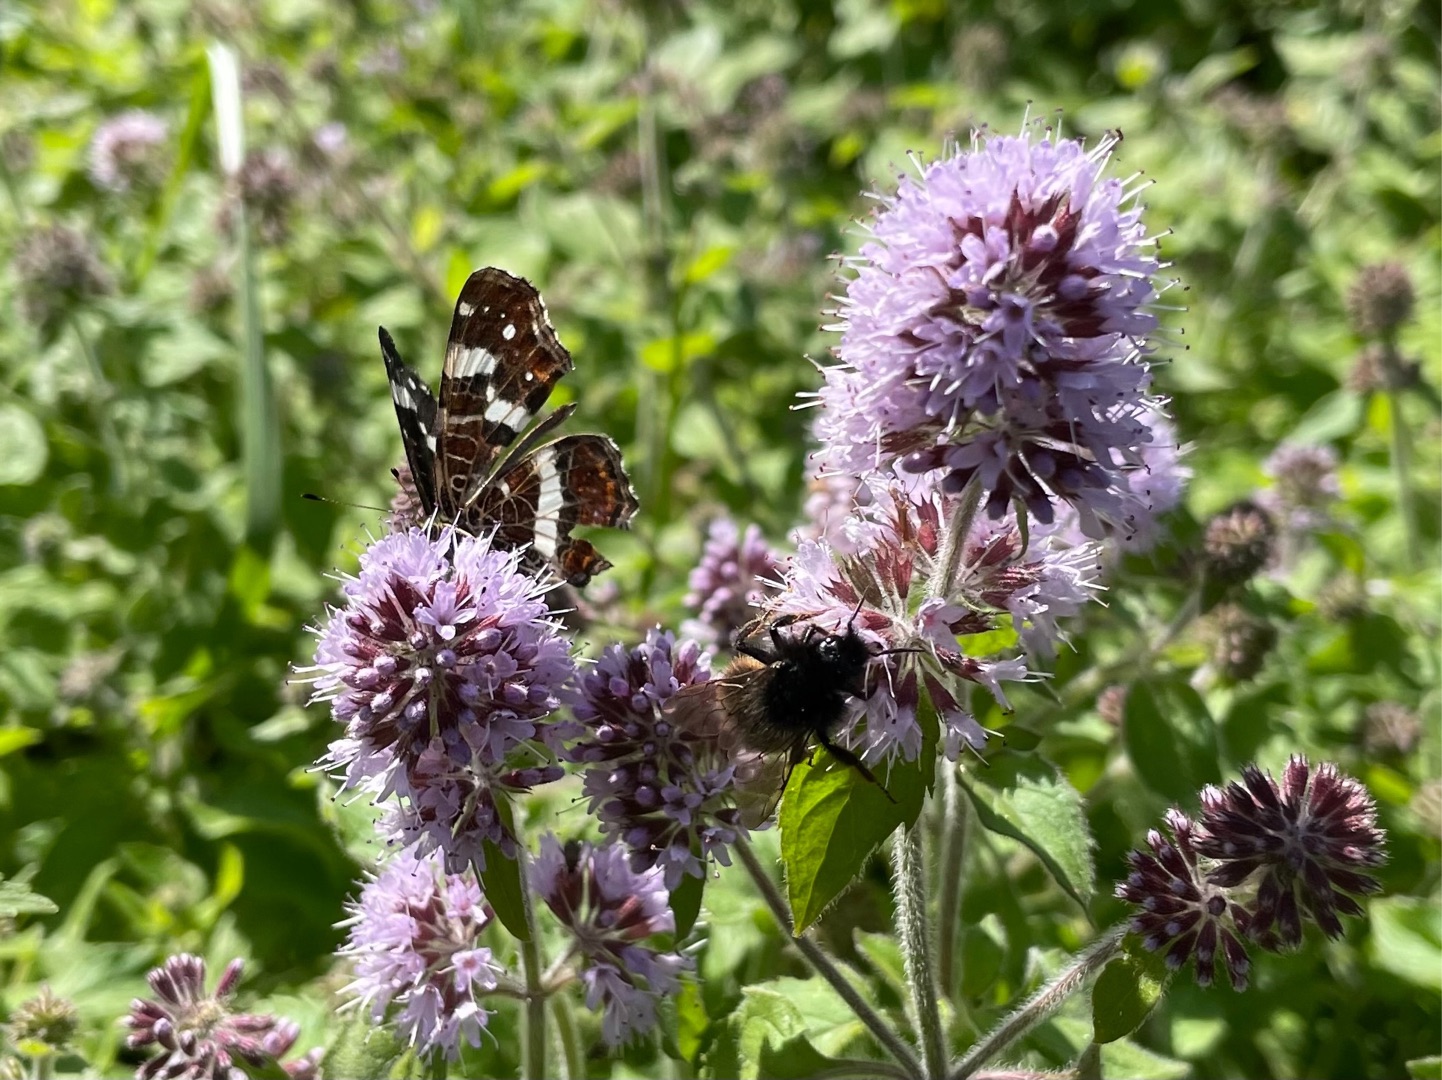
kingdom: Animalia
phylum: Arthropoda
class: Insecta
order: Lepidoptera
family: Nymphalidae
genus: Araschnia
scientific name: Araschnia levana
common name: Nældesommerfugl
